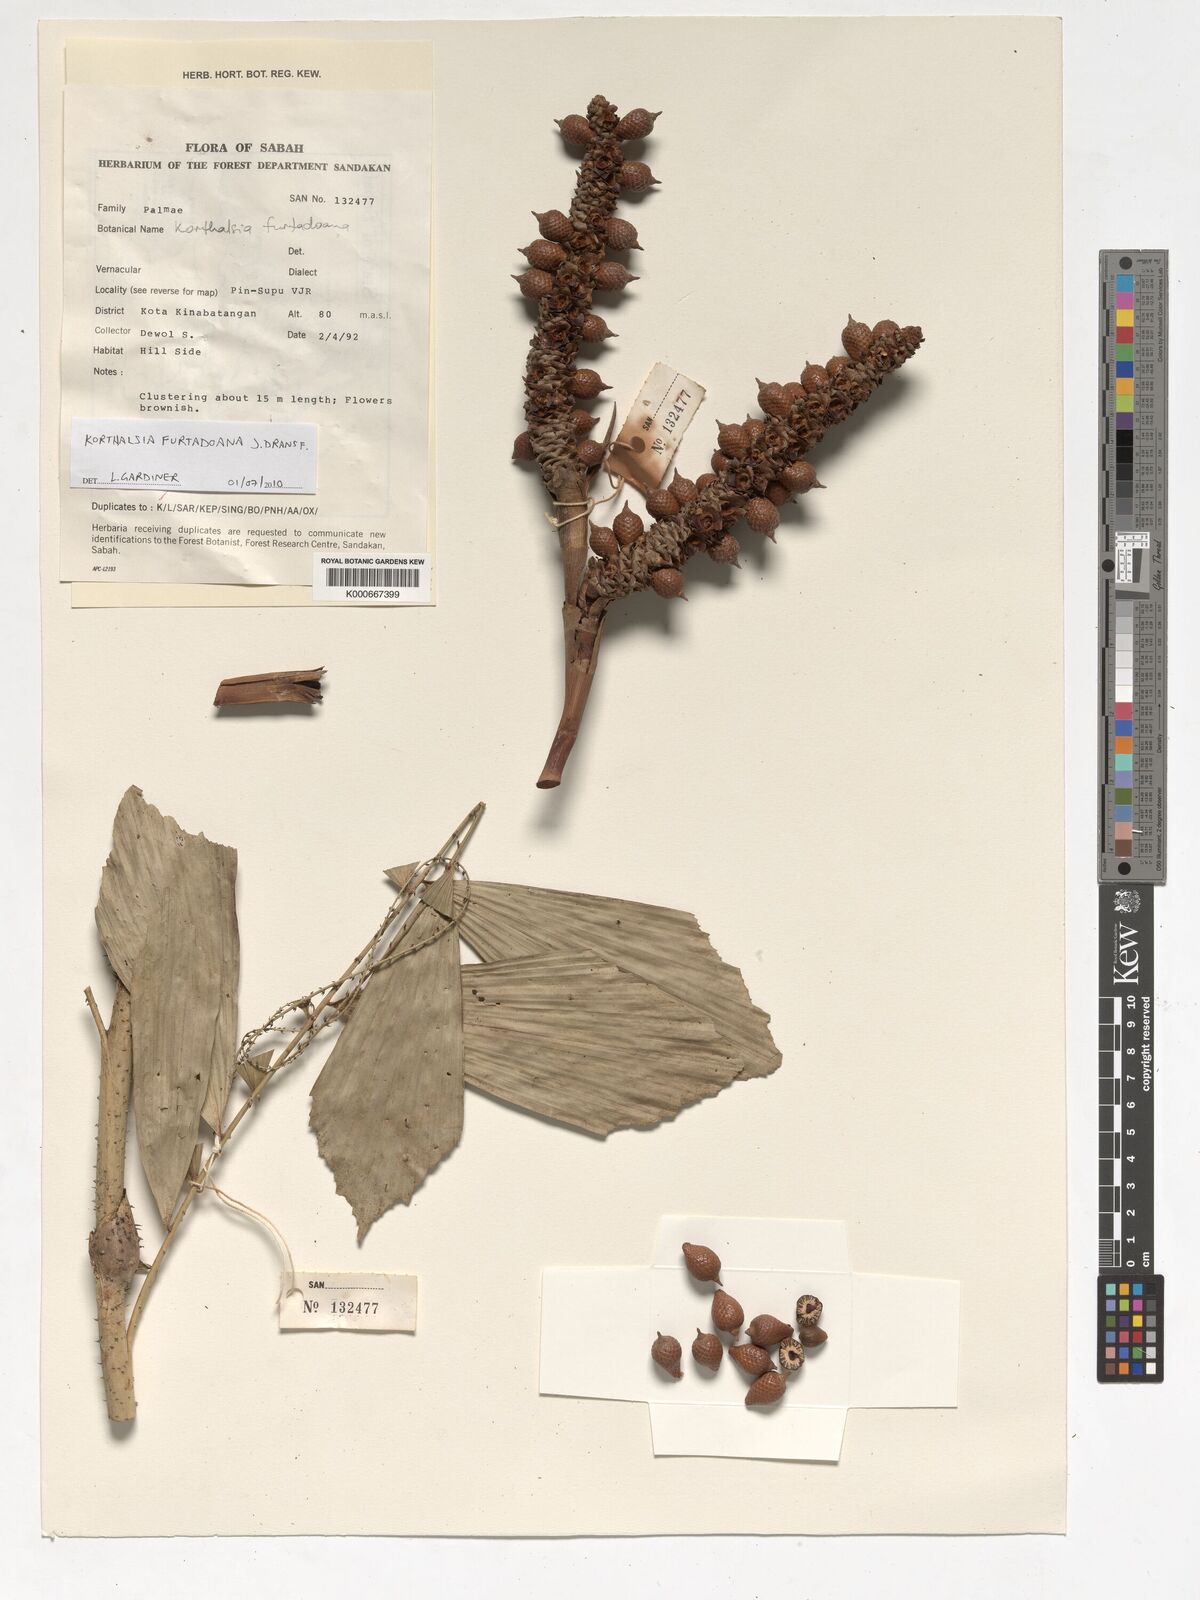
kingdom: Plantae
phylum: Tracheophyta
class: Liliopsida
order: Arecales
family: Arecaceae
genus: Korthalsia
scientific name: Korthalsia furtadoana
